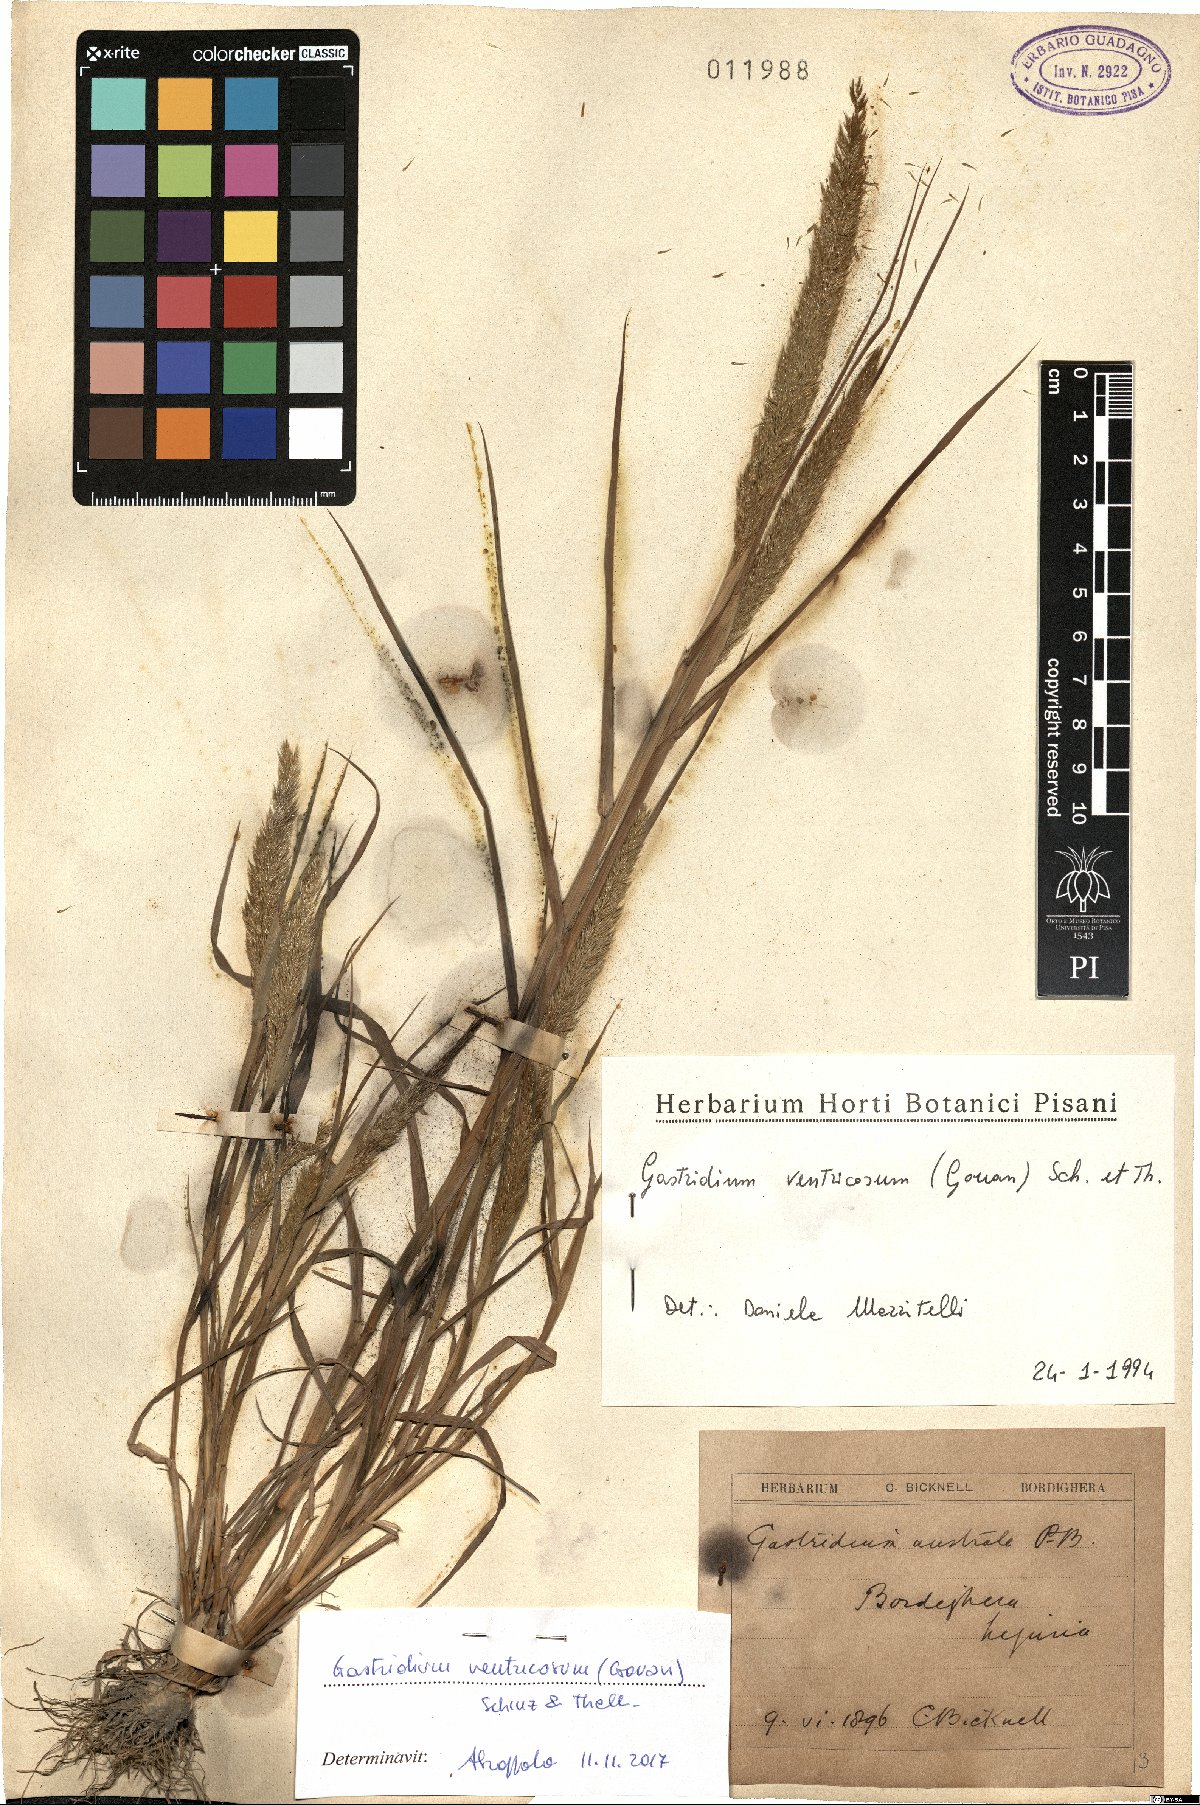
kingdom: Plantae
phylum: Tracheophyta
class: Liliopsida
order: Poales
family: Poaceae
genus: Gastridium
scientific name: Gastridium ventricosum
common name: Nit-grass
